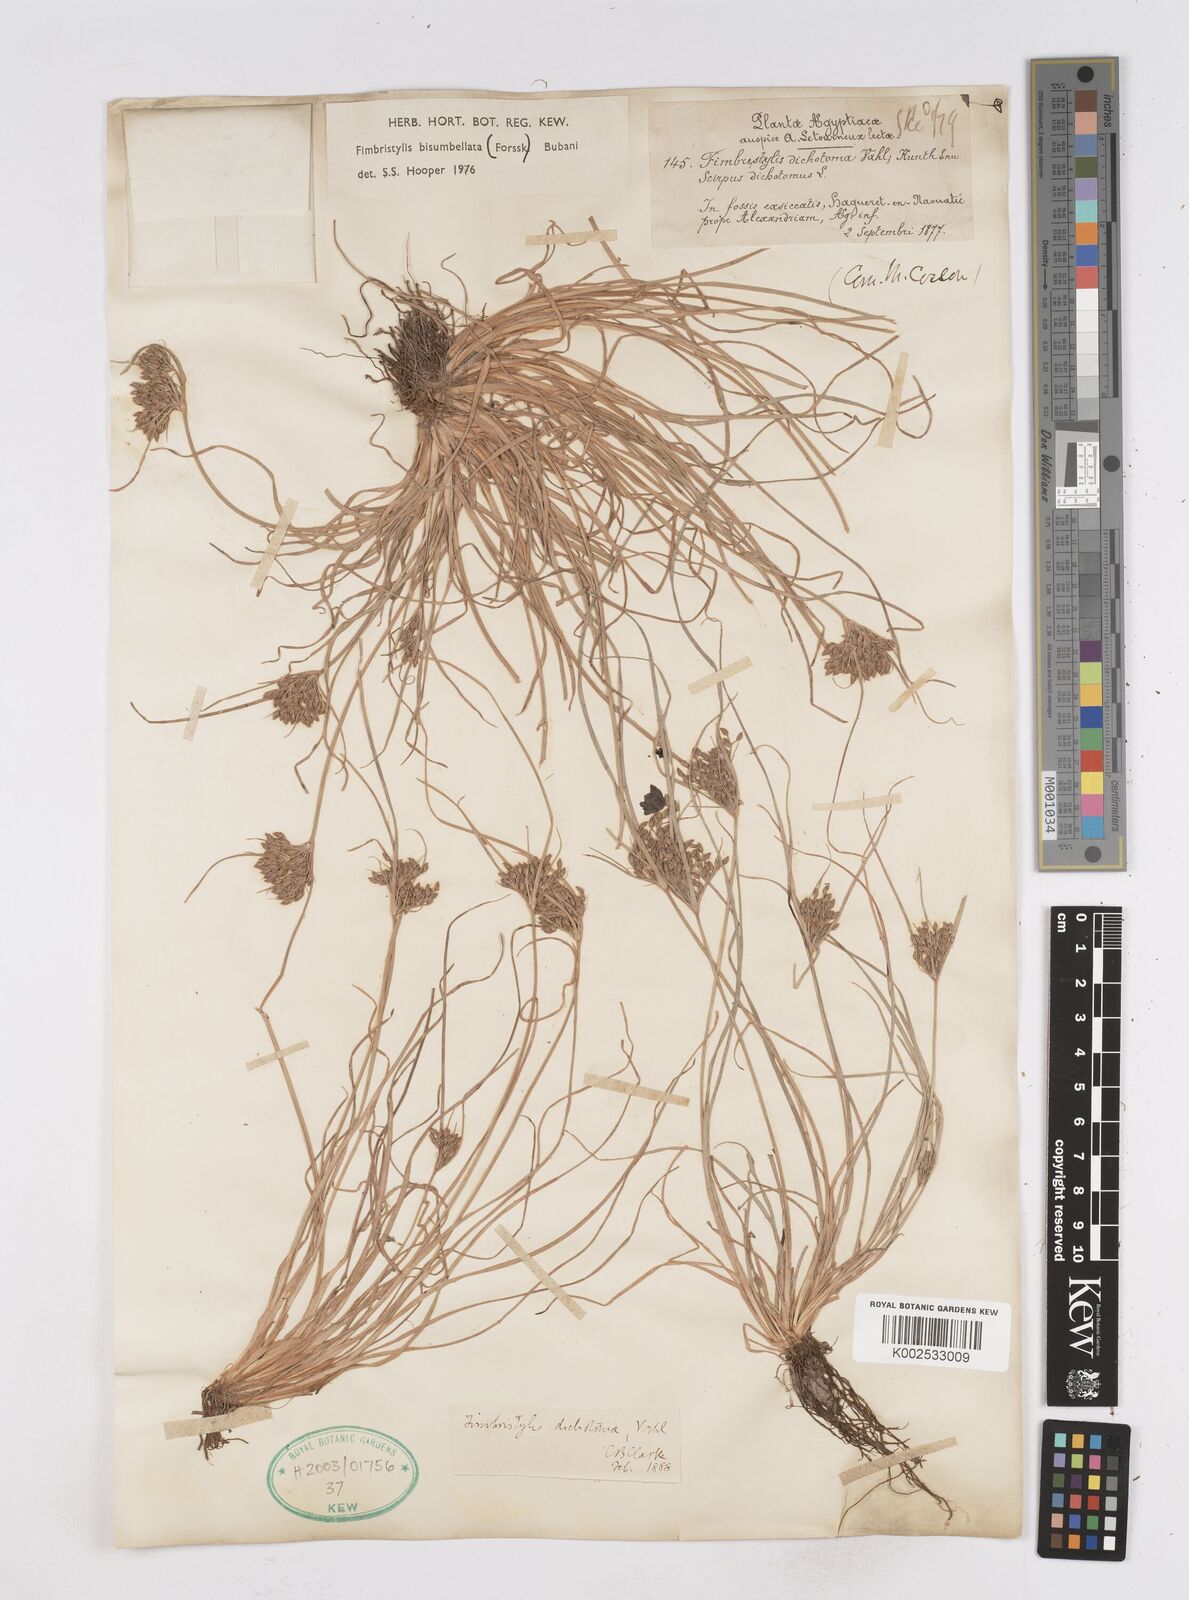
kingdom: Plantae
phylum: Tracheophyta
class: Liliopsida
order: Poales
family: Cyperaceae
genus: Fimbristylis
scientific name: Fimbristylis bisumbellata
